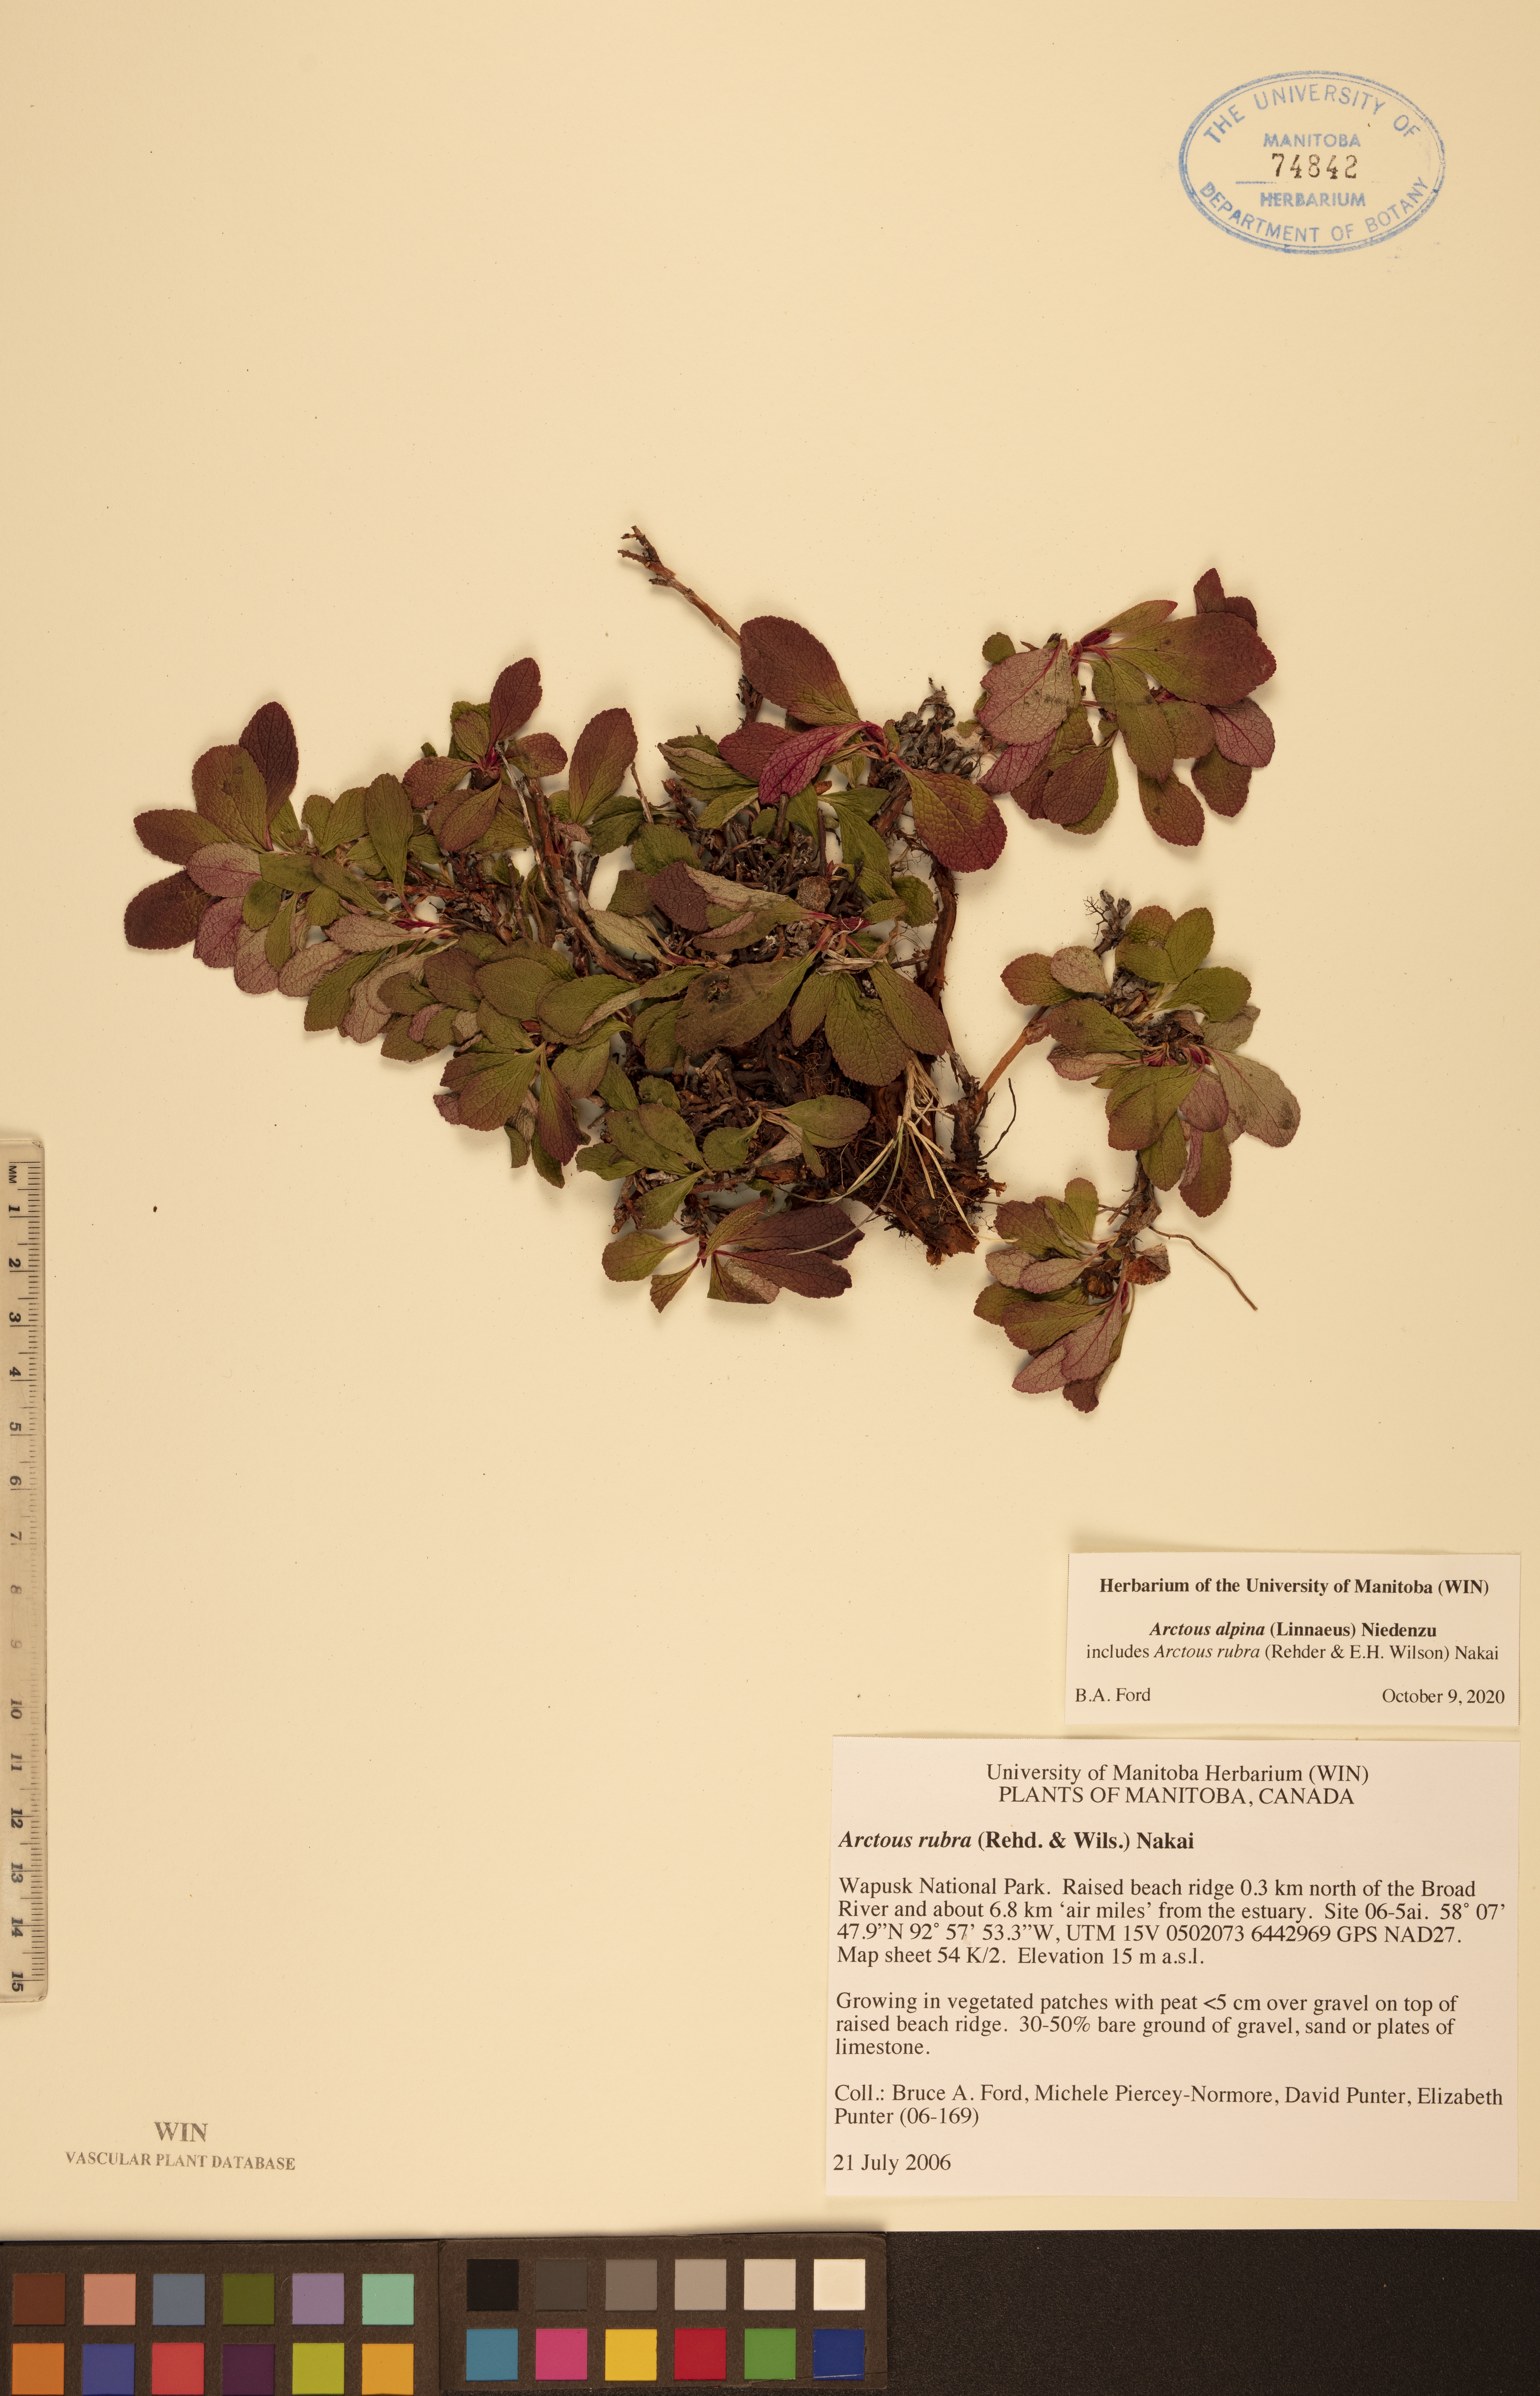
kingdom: Plantae
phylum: Tracheophyta
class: Magnoliopsida
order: Ericales
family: Ericaceae
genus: Arctostaphylos
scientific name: Arctostaphylos alpinus
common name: Alpine bearberry
